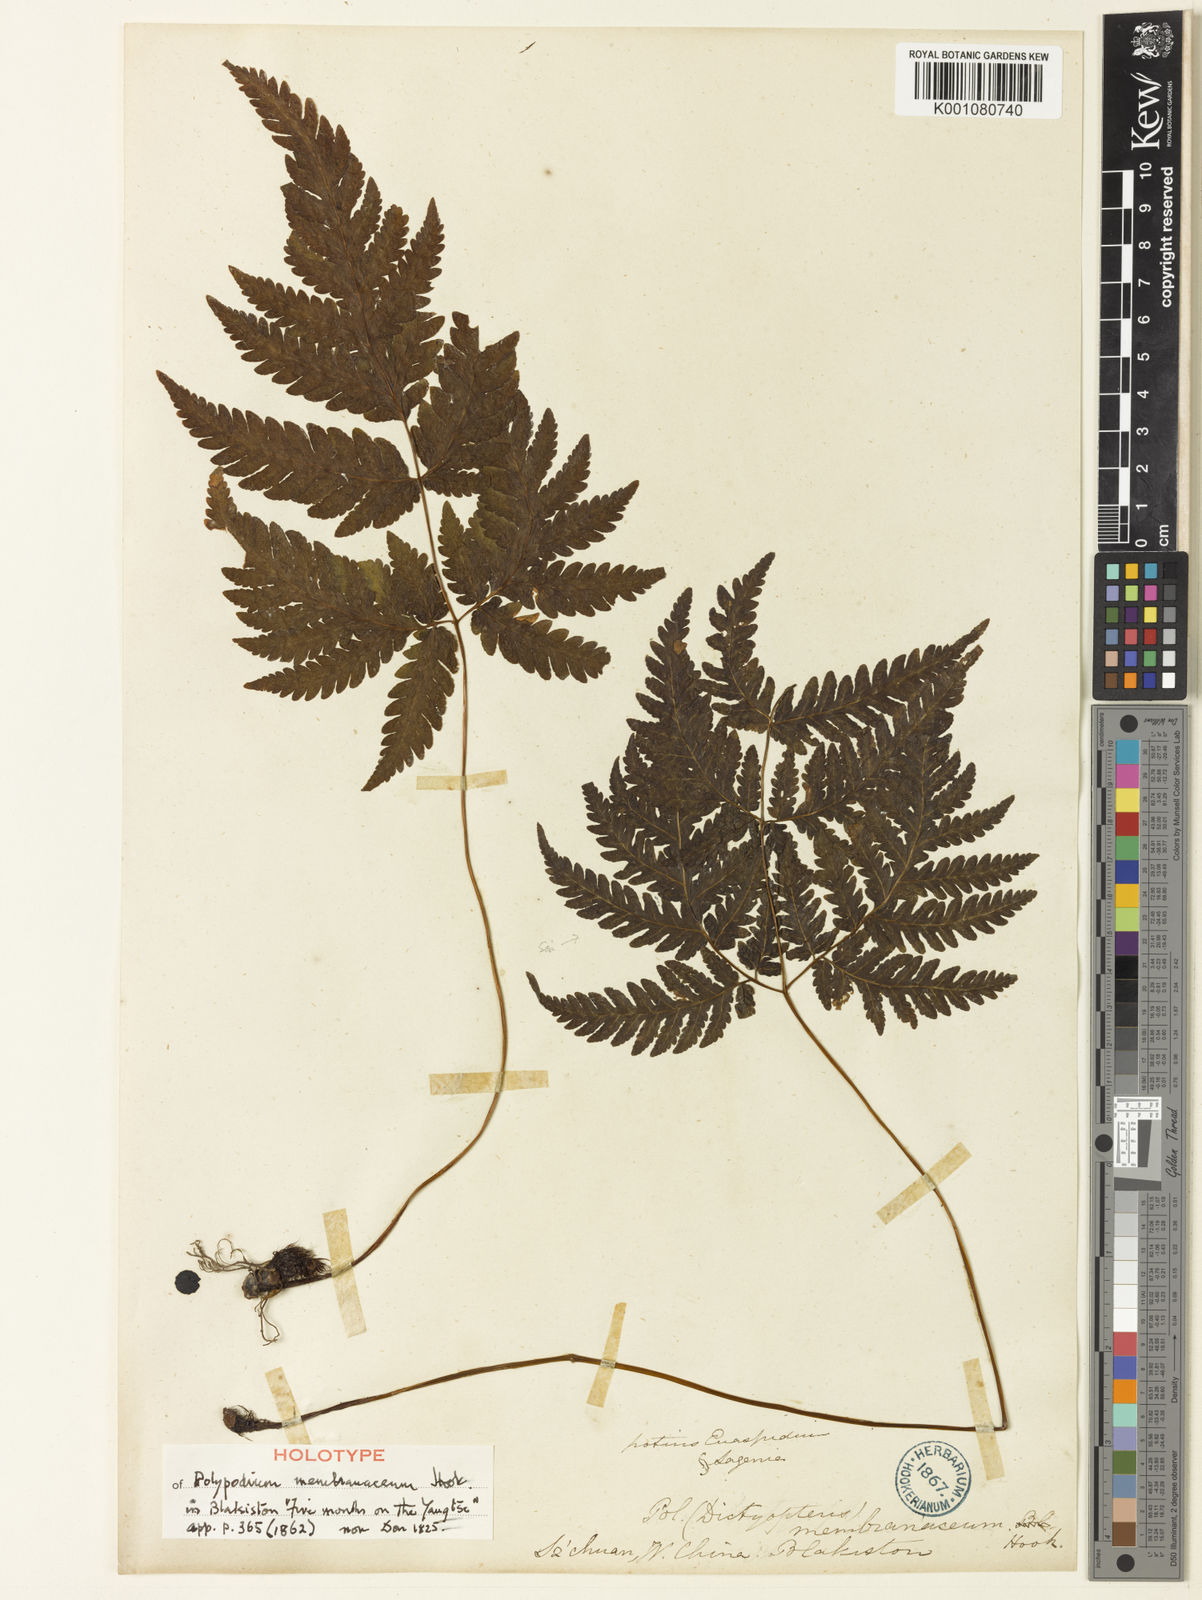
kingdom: Plantae
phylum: Tracheophyta
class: Polypodiopsida
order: Polypodiales
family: Tectariaceae
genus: Tectaria
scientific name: Tectaria membranacea
